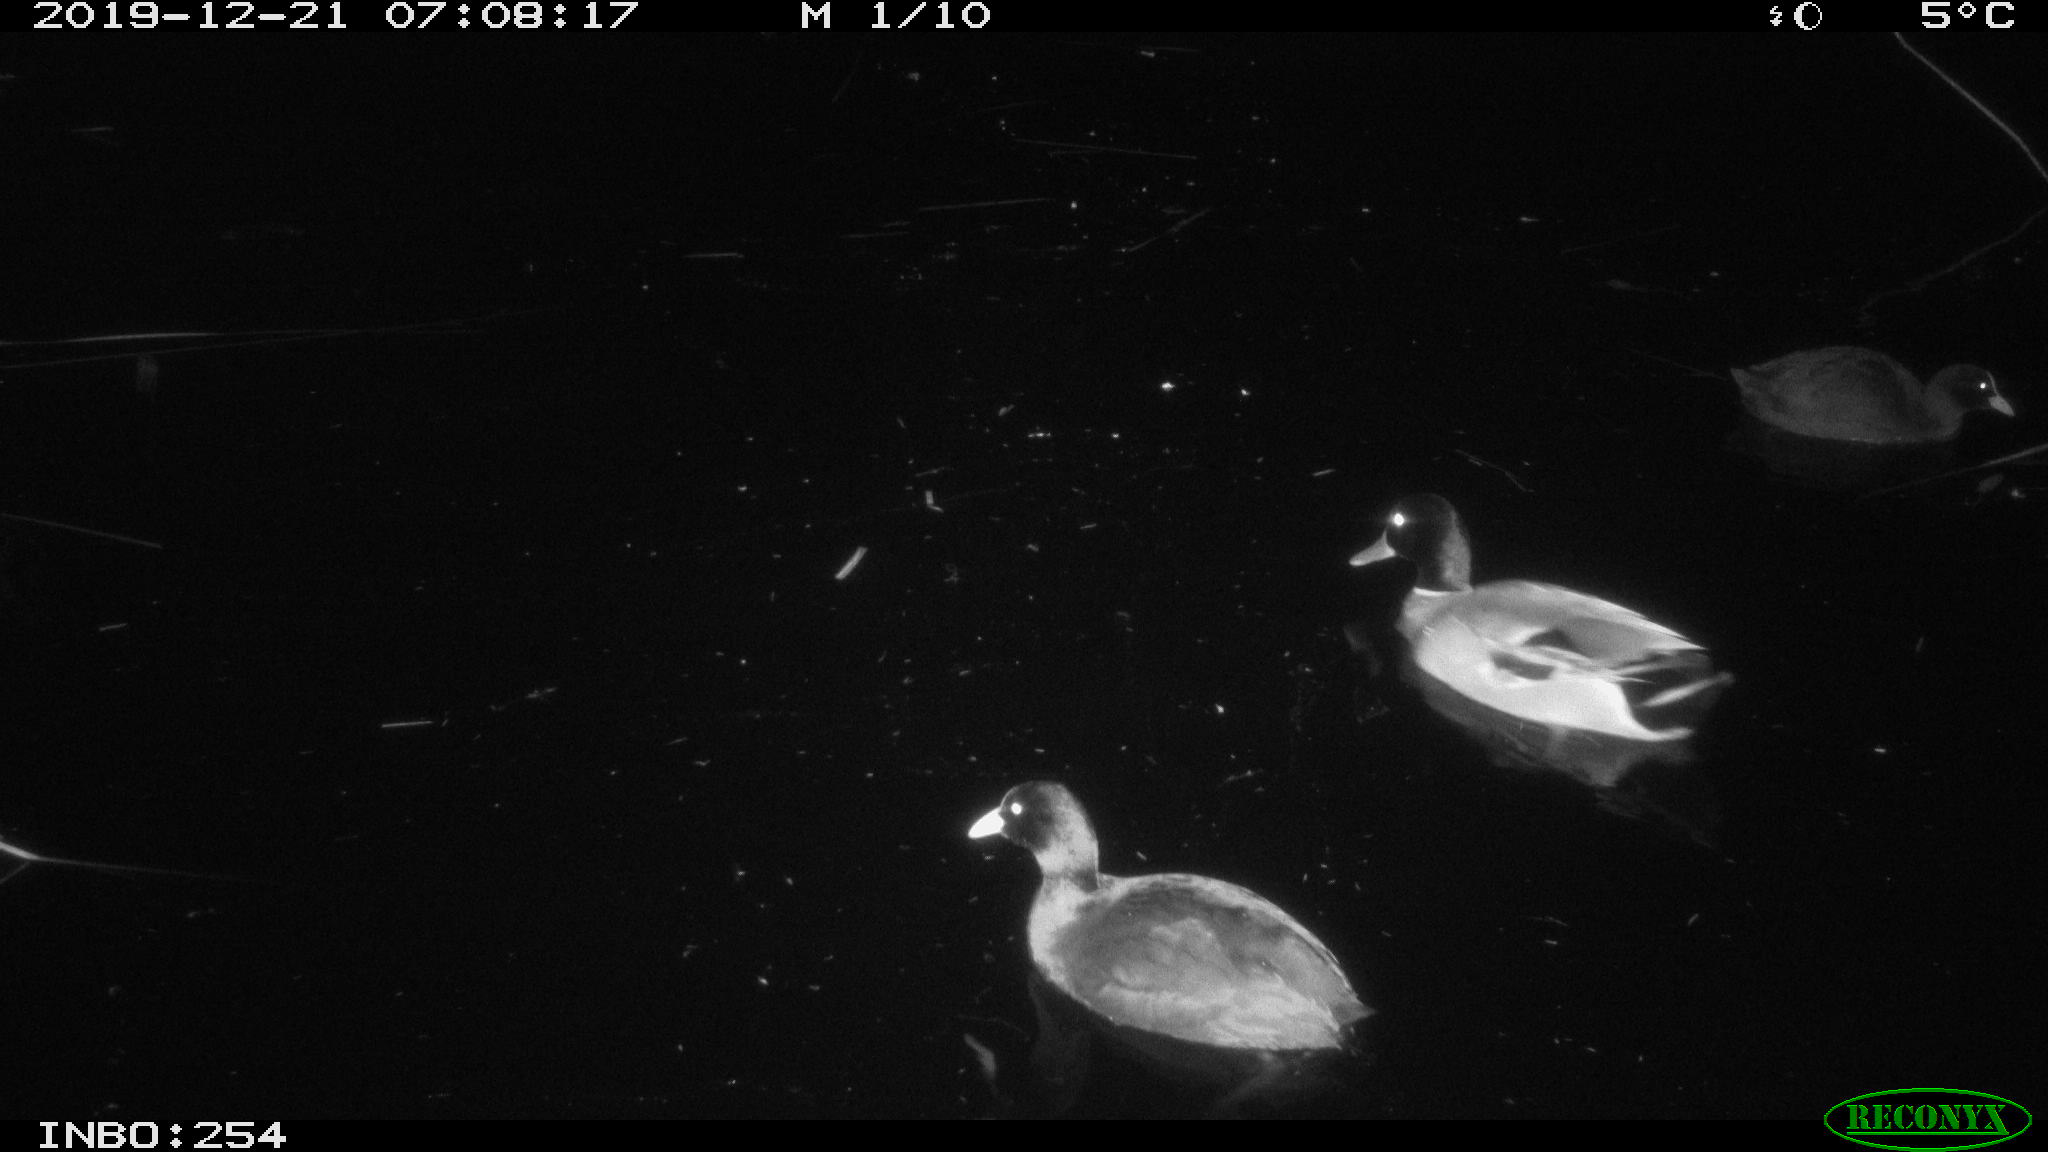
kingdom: Animalia
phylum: Chordata
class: Aves
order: Gruiformes
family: Rallidae
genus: Fulica
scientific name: Fulica atra
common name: Eurasian coot
